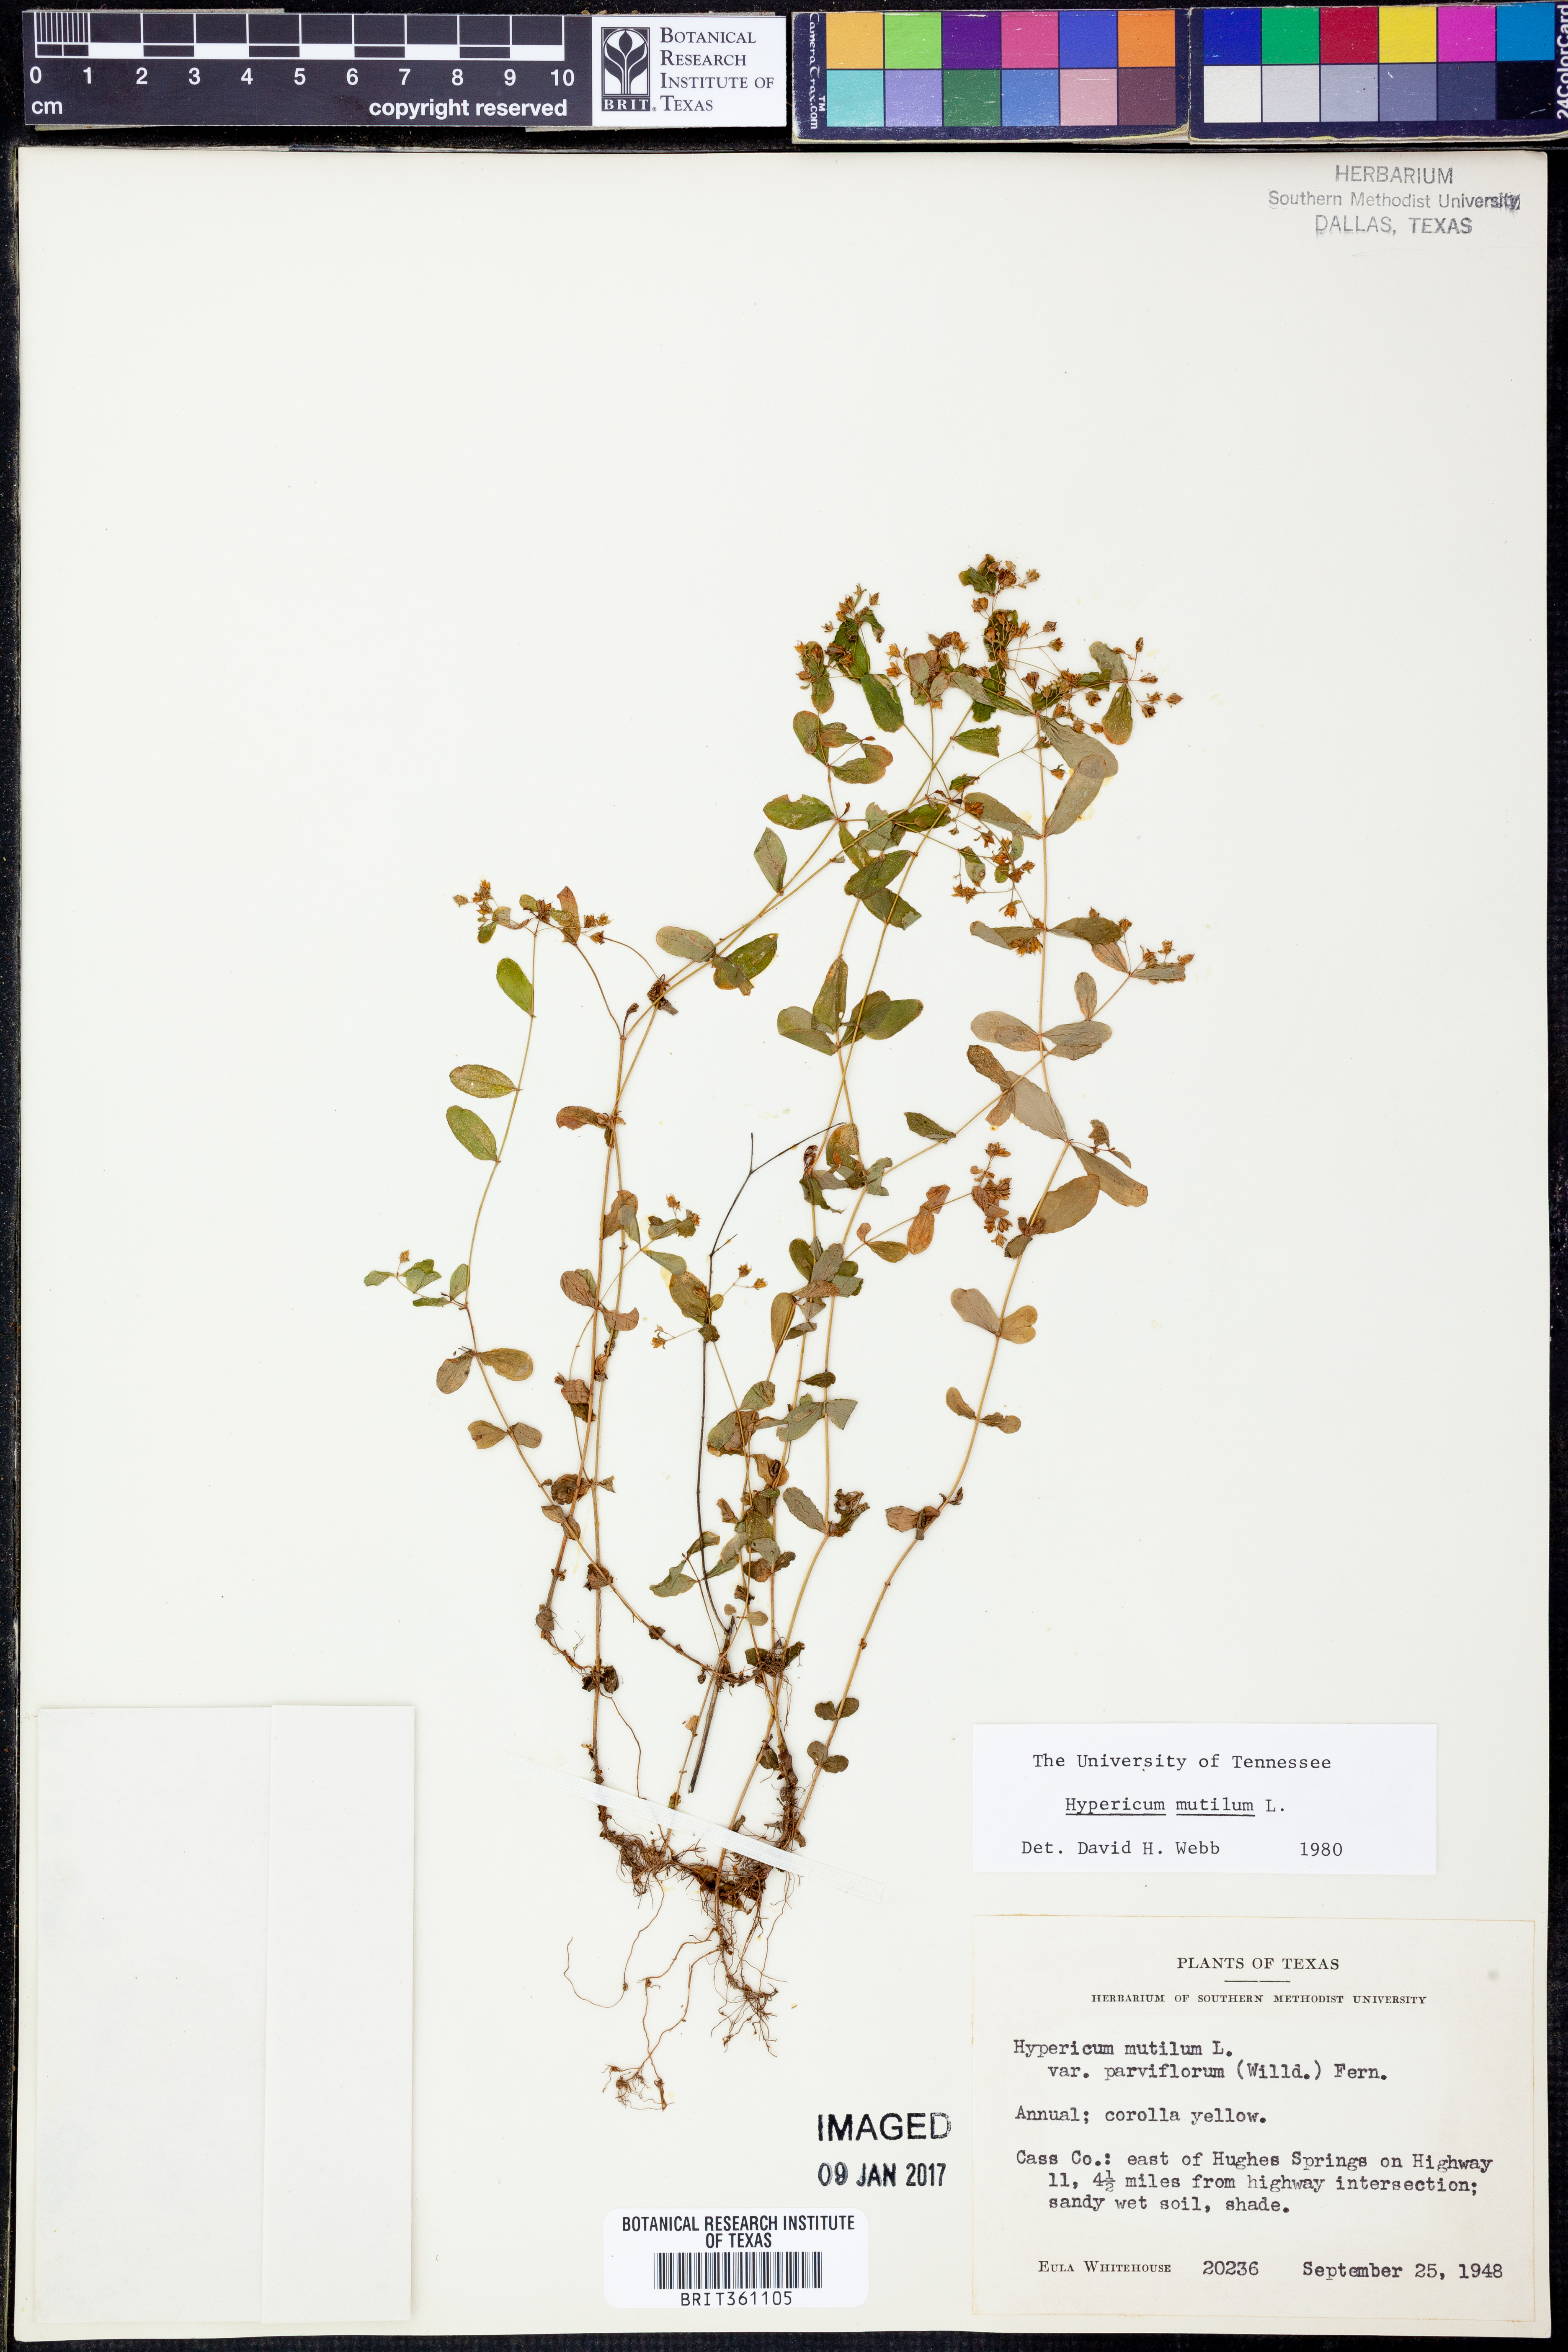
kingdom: Plantae
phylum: Tracheophyta
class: Magnoliopsida
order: Malpighiales
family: Hypericaceae
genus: Hypericum
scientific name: Hypericum mutilum
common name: Dwarf st. john's-wort
